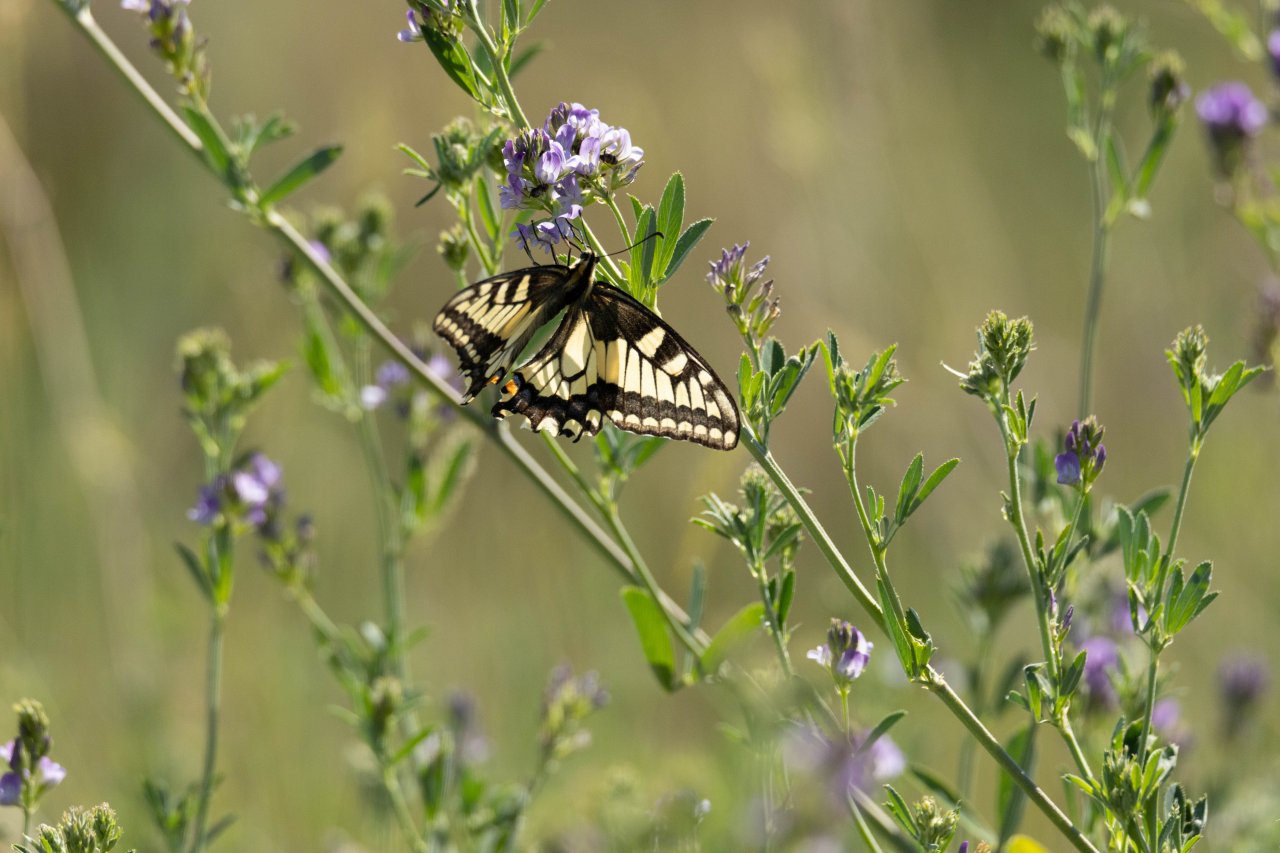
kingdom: Animalia
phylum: Arthropoda
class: Insecta
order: Lepidoptera
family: Papilionidae
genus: Papilio
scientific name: Papilio machaon
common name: Old World Swallowtail
